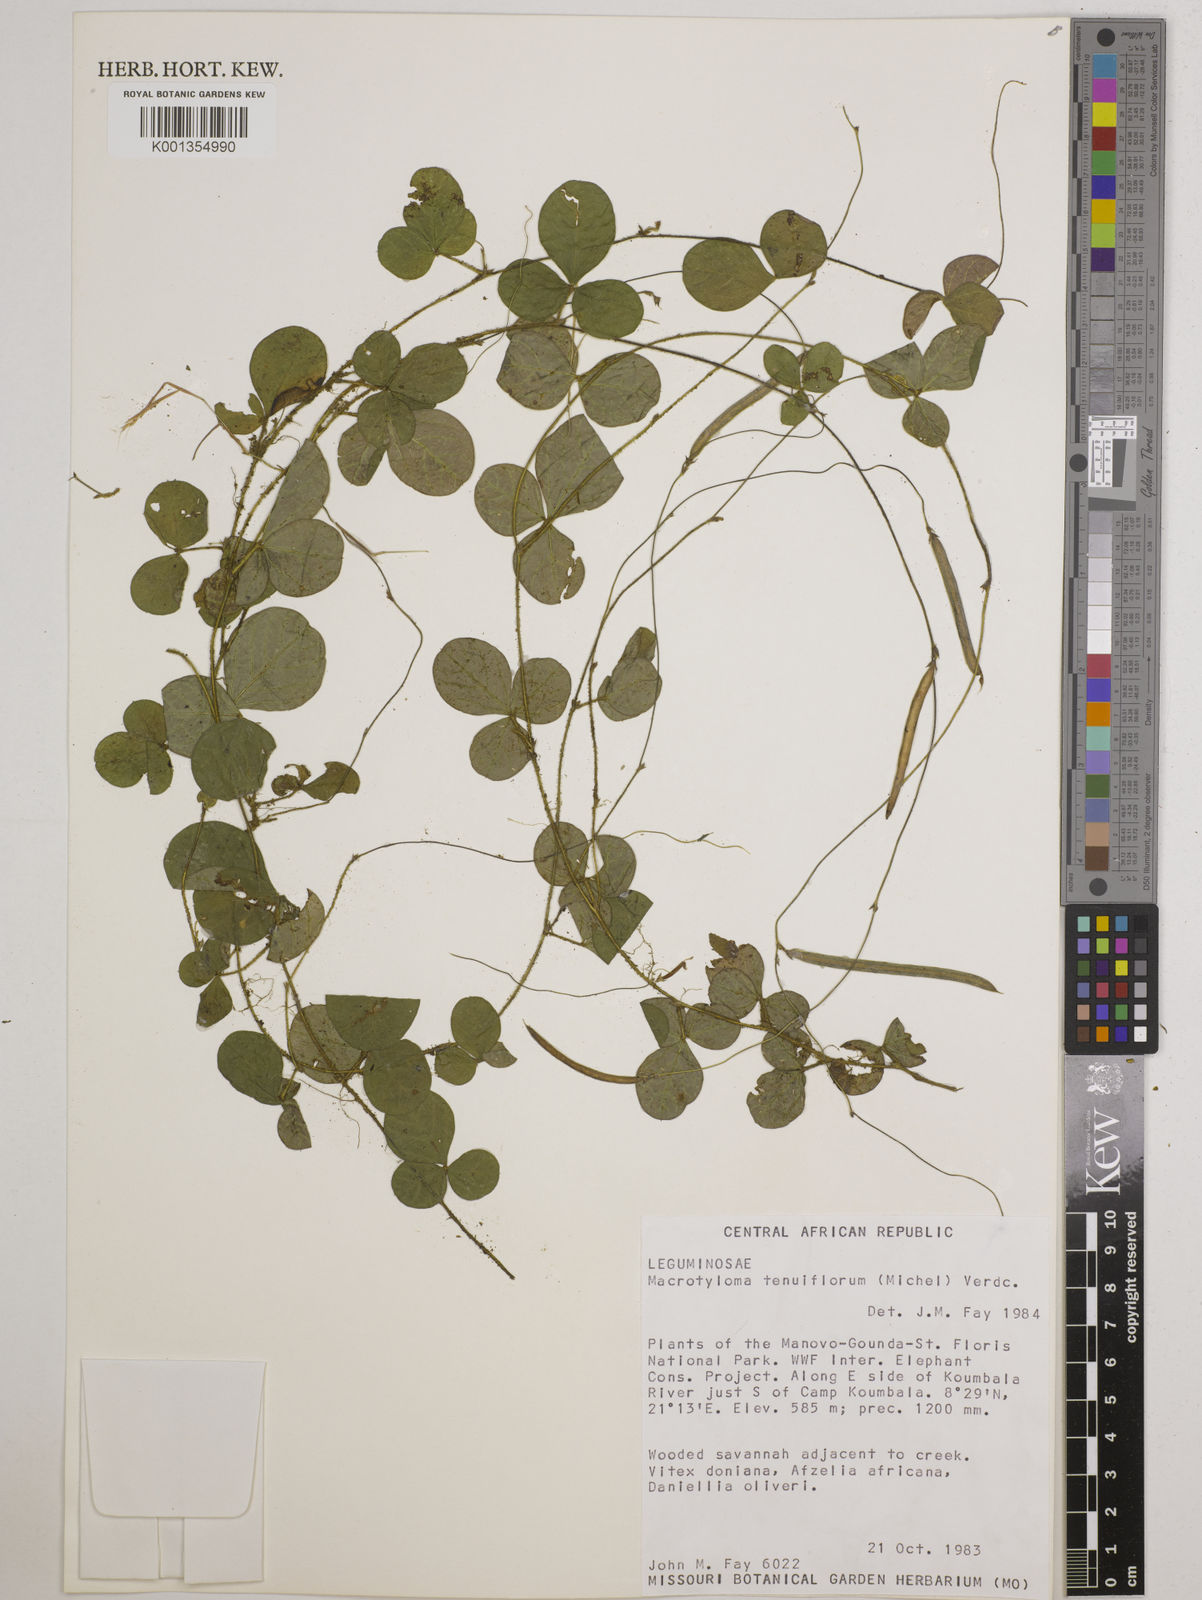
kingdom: Plantae
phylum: Tracheophyta
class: Magnoliopsida
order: Fabales
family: Fabaceae
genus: Macrotyloma
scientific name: Macrotyloma tenuiflorum
